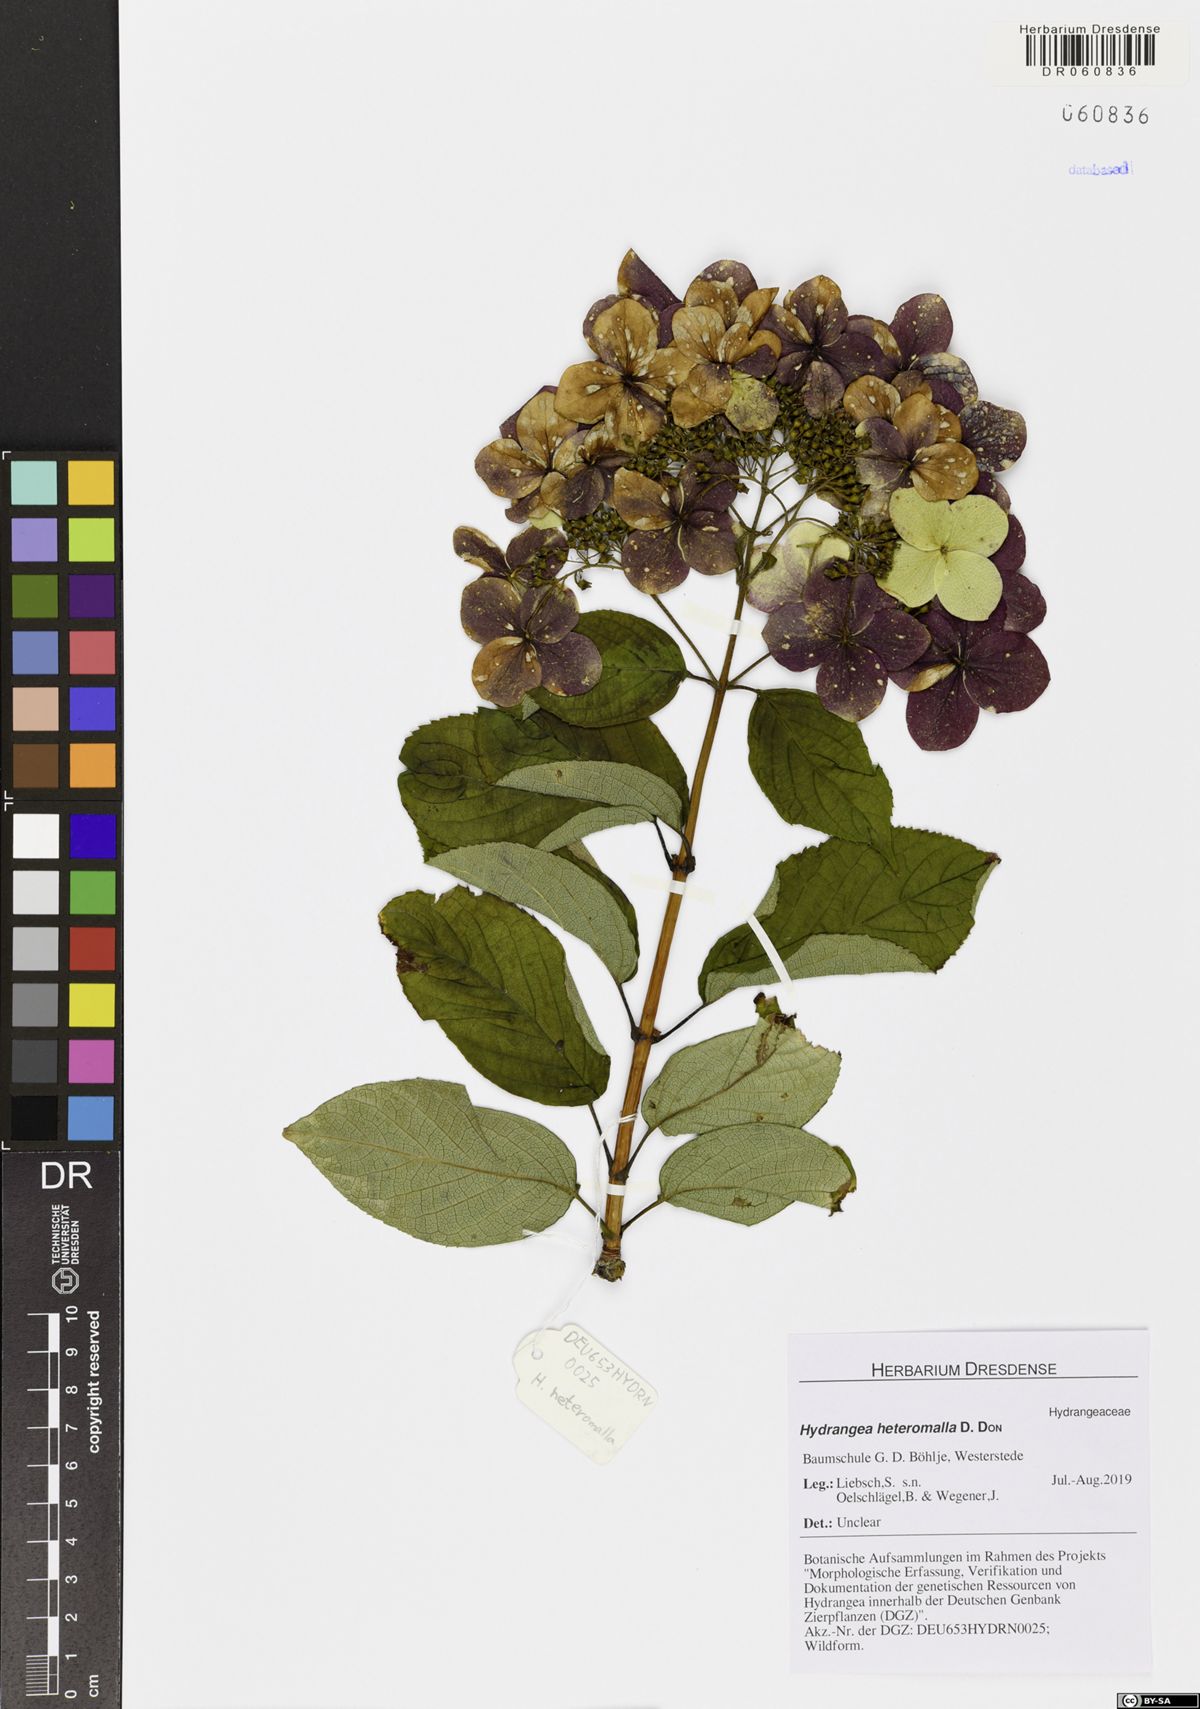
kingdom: Plantae
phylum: Tracheophyta
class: Magnoliopsida
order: Cornales
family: Hydrangeaceae
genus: Hydrangea
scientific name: Hydrangea heteromalla
